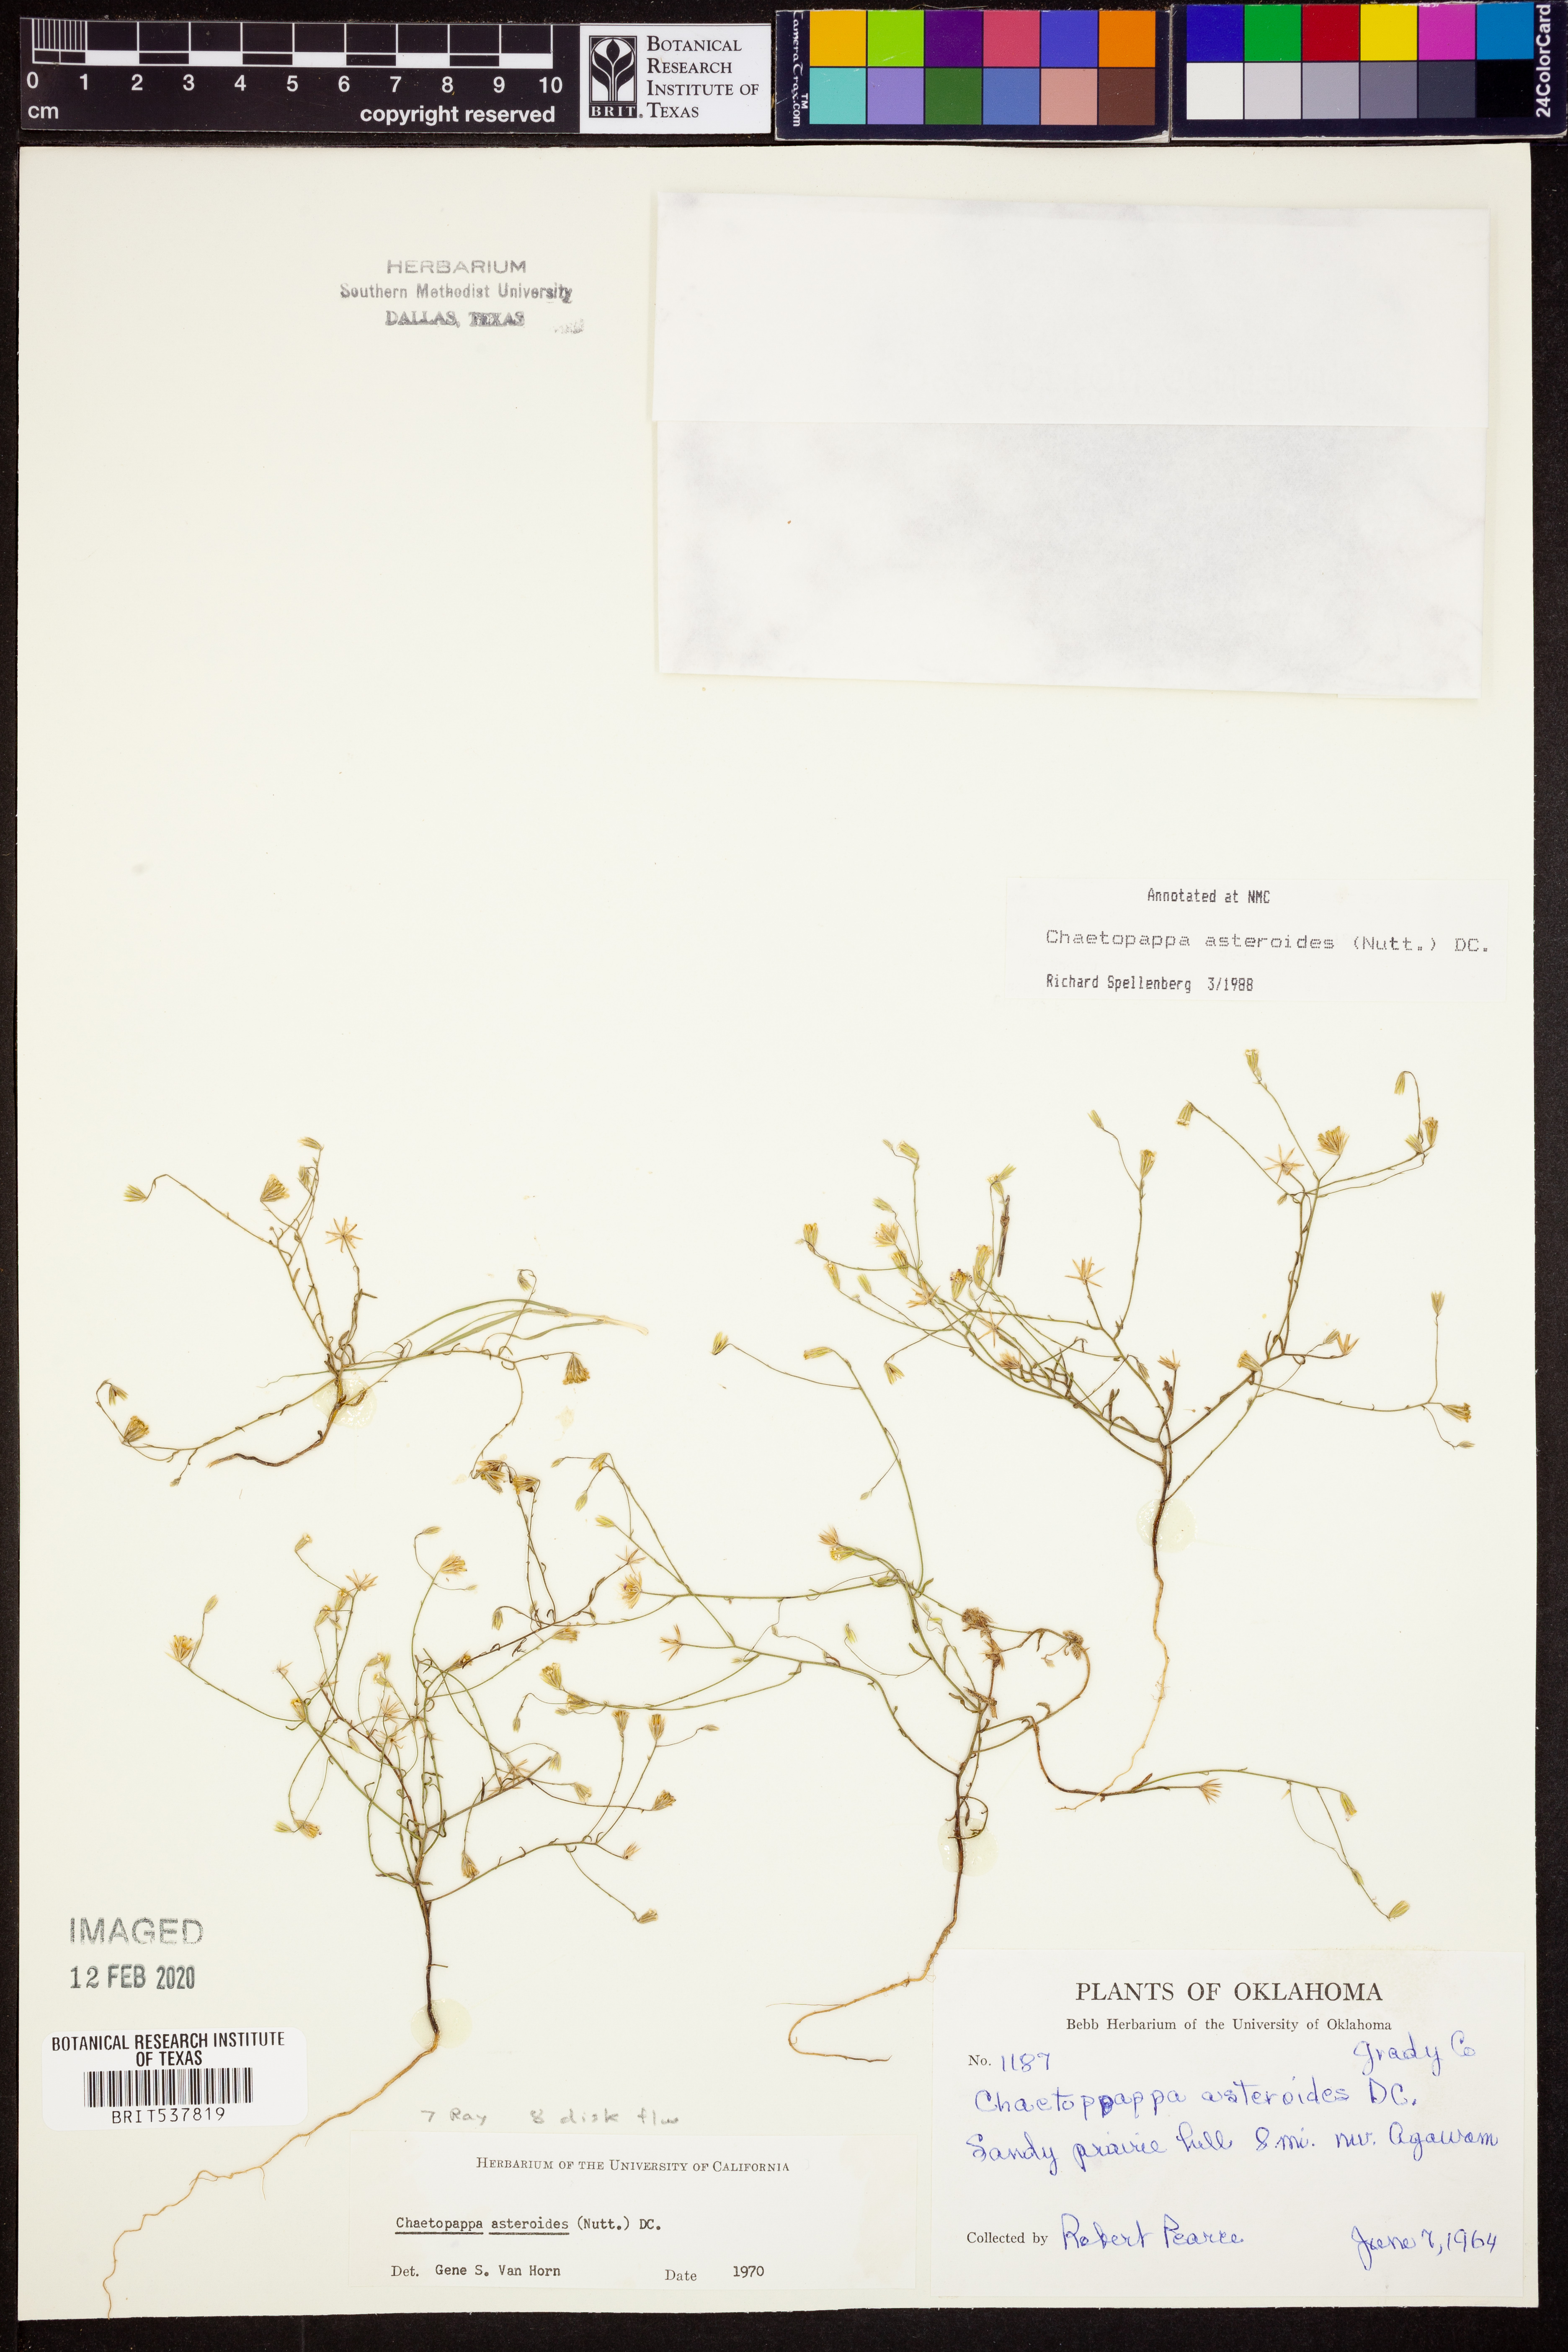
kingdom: Plantae
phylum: Tracheophyta
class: Magnoliopsida
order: Asterales
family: Asteraceae
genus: Chaetopappa
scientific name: Chaetopappa asteroides
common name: Tiny lazy daisy
